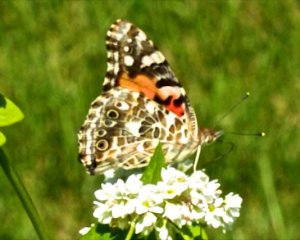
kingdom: Animalia
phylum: Arthropoda
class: Insecta
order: Lepidoptera
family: Nymphalidae
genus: Vanessa
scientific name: Vanessa cardui
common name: Painted Lady
